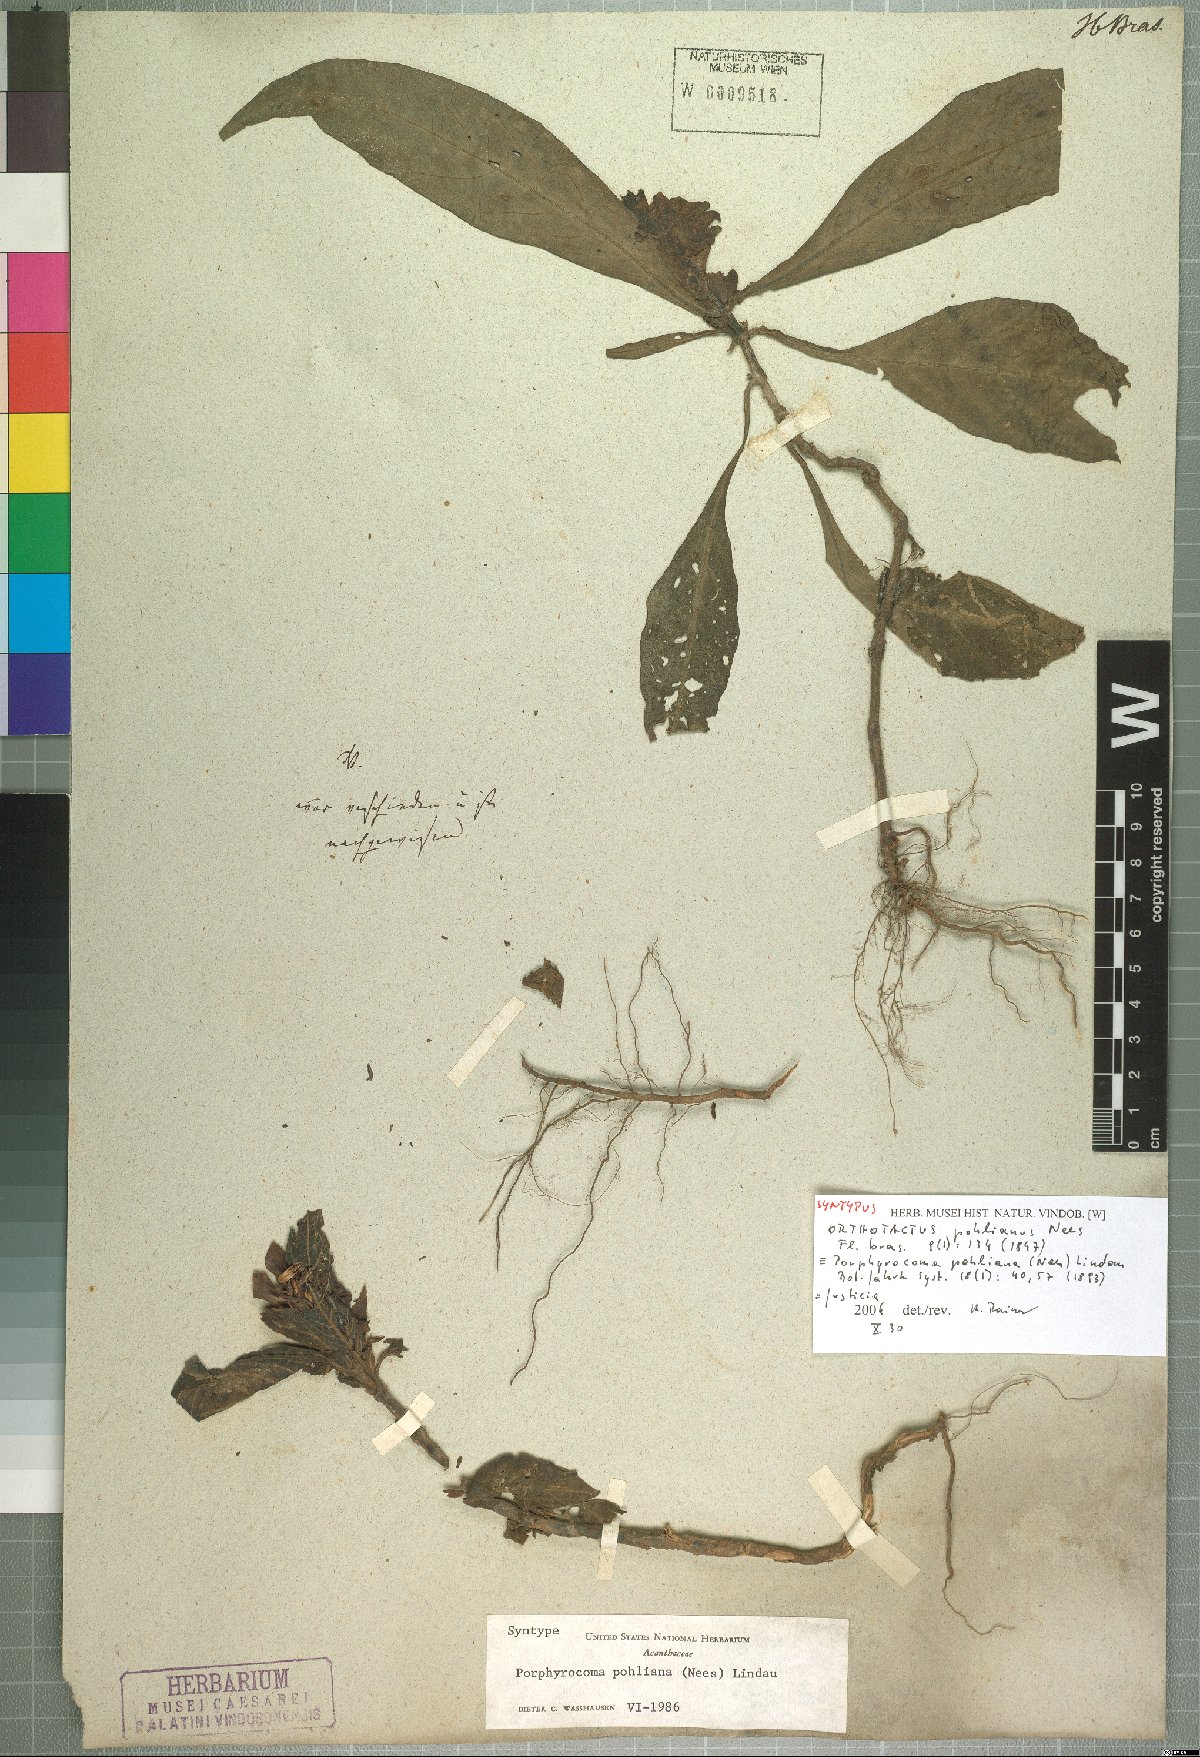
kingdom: Plantae
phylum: Tracheophyta
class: Magnoliopsida
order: Lamiales
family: Acanthaceae
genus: Justicia
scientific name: Justicia
